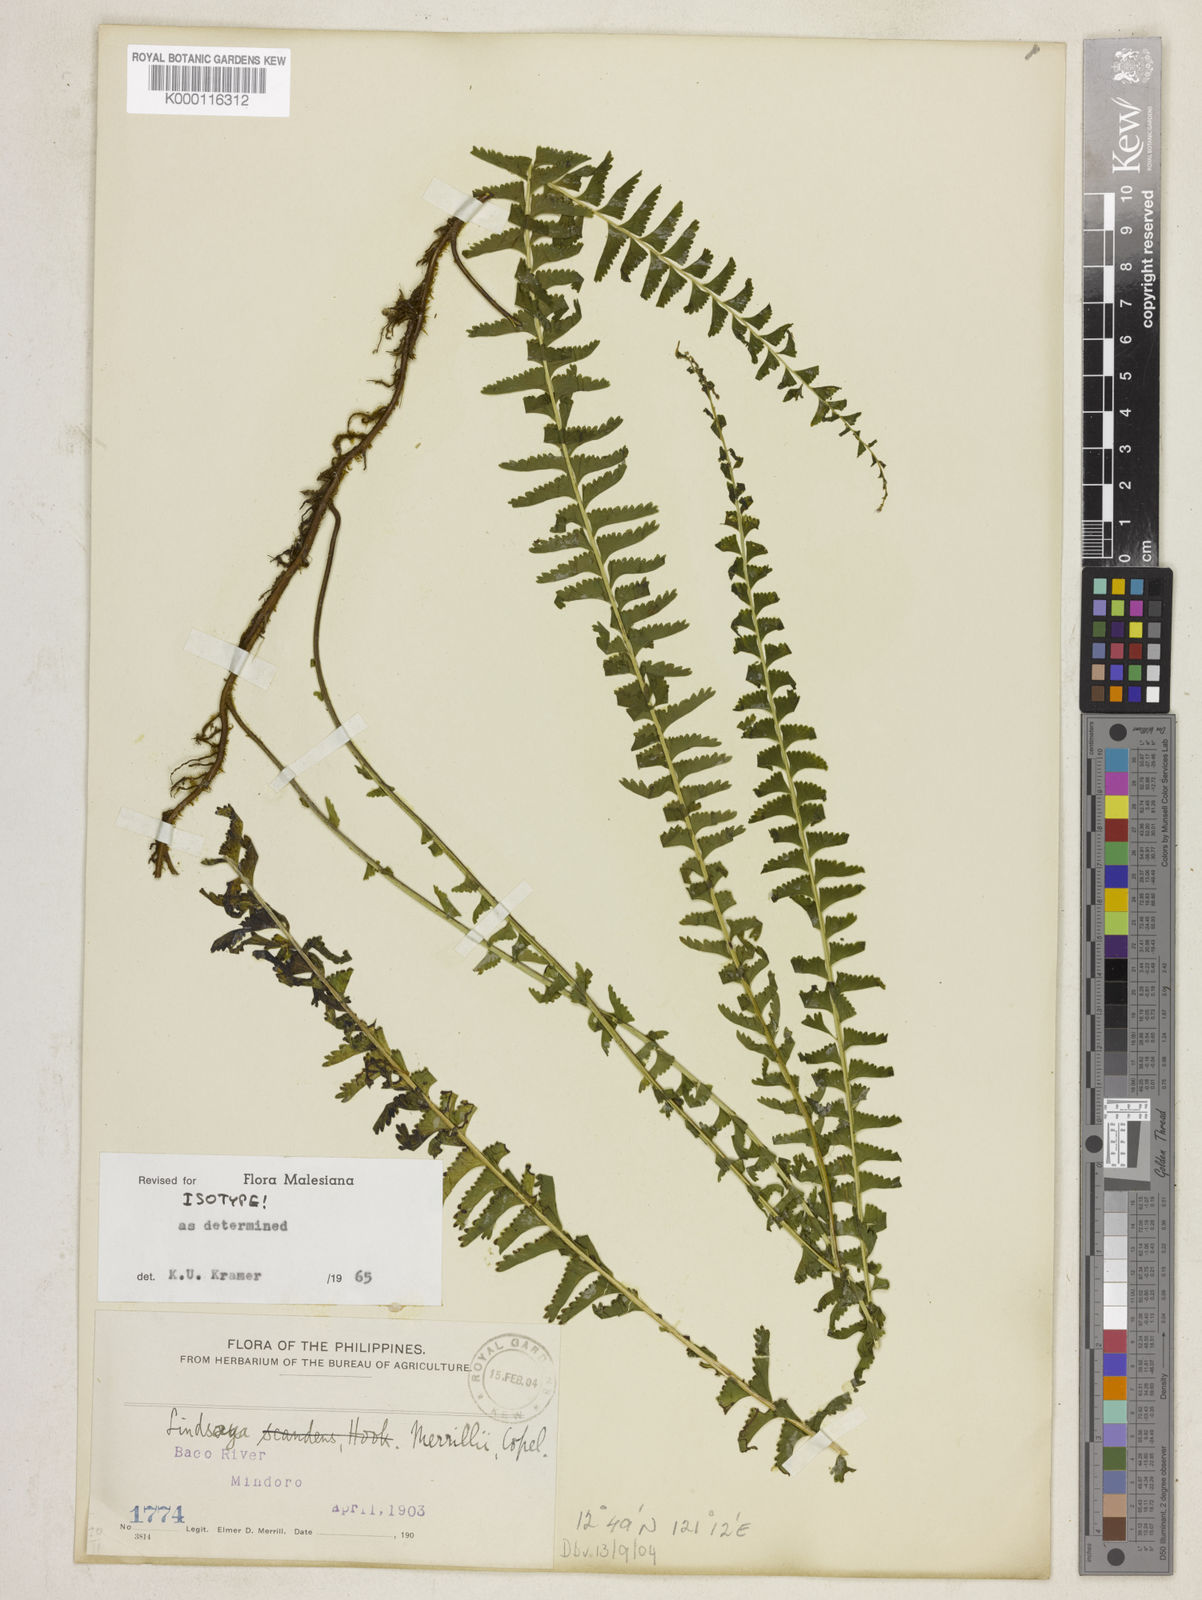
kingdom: Plantae
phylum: Tracheophyta
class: Polypodiopsida
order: Polypodiales
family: Lindsaeaceae
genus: Lindsaea
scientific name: Lindsaea merrillii
